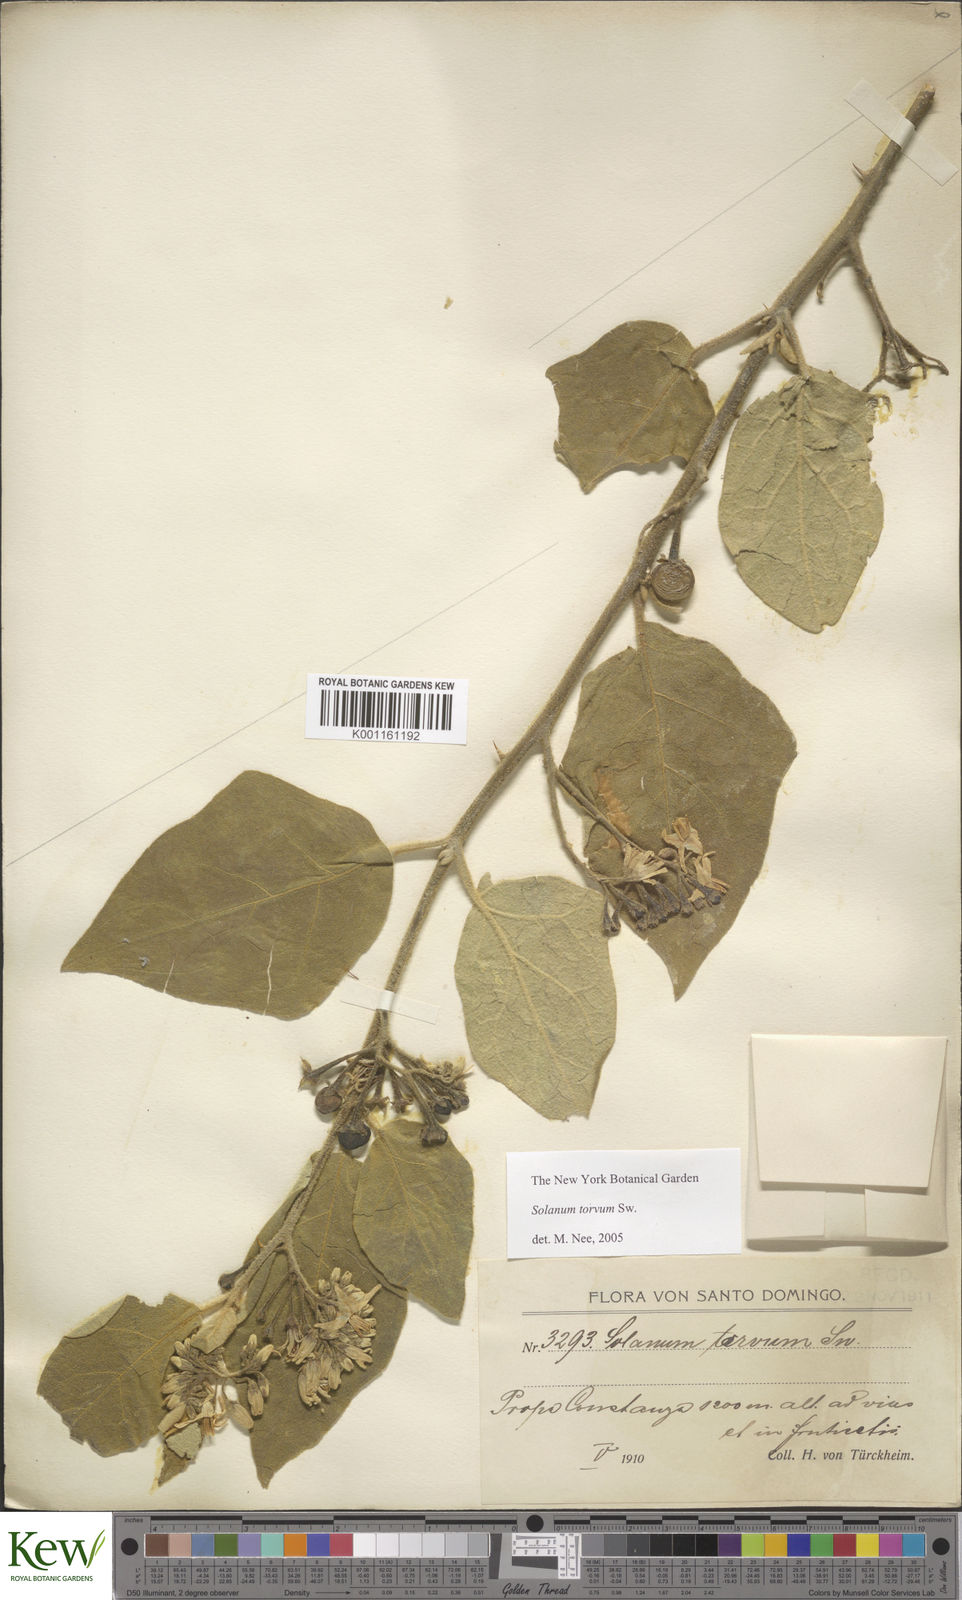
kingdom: Plantae
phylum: Tracheophyta
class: Magnoliopsida
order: Solanales
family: Solanaceae
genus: Solanum
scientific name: Solanum torvum
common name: Turkey berry
